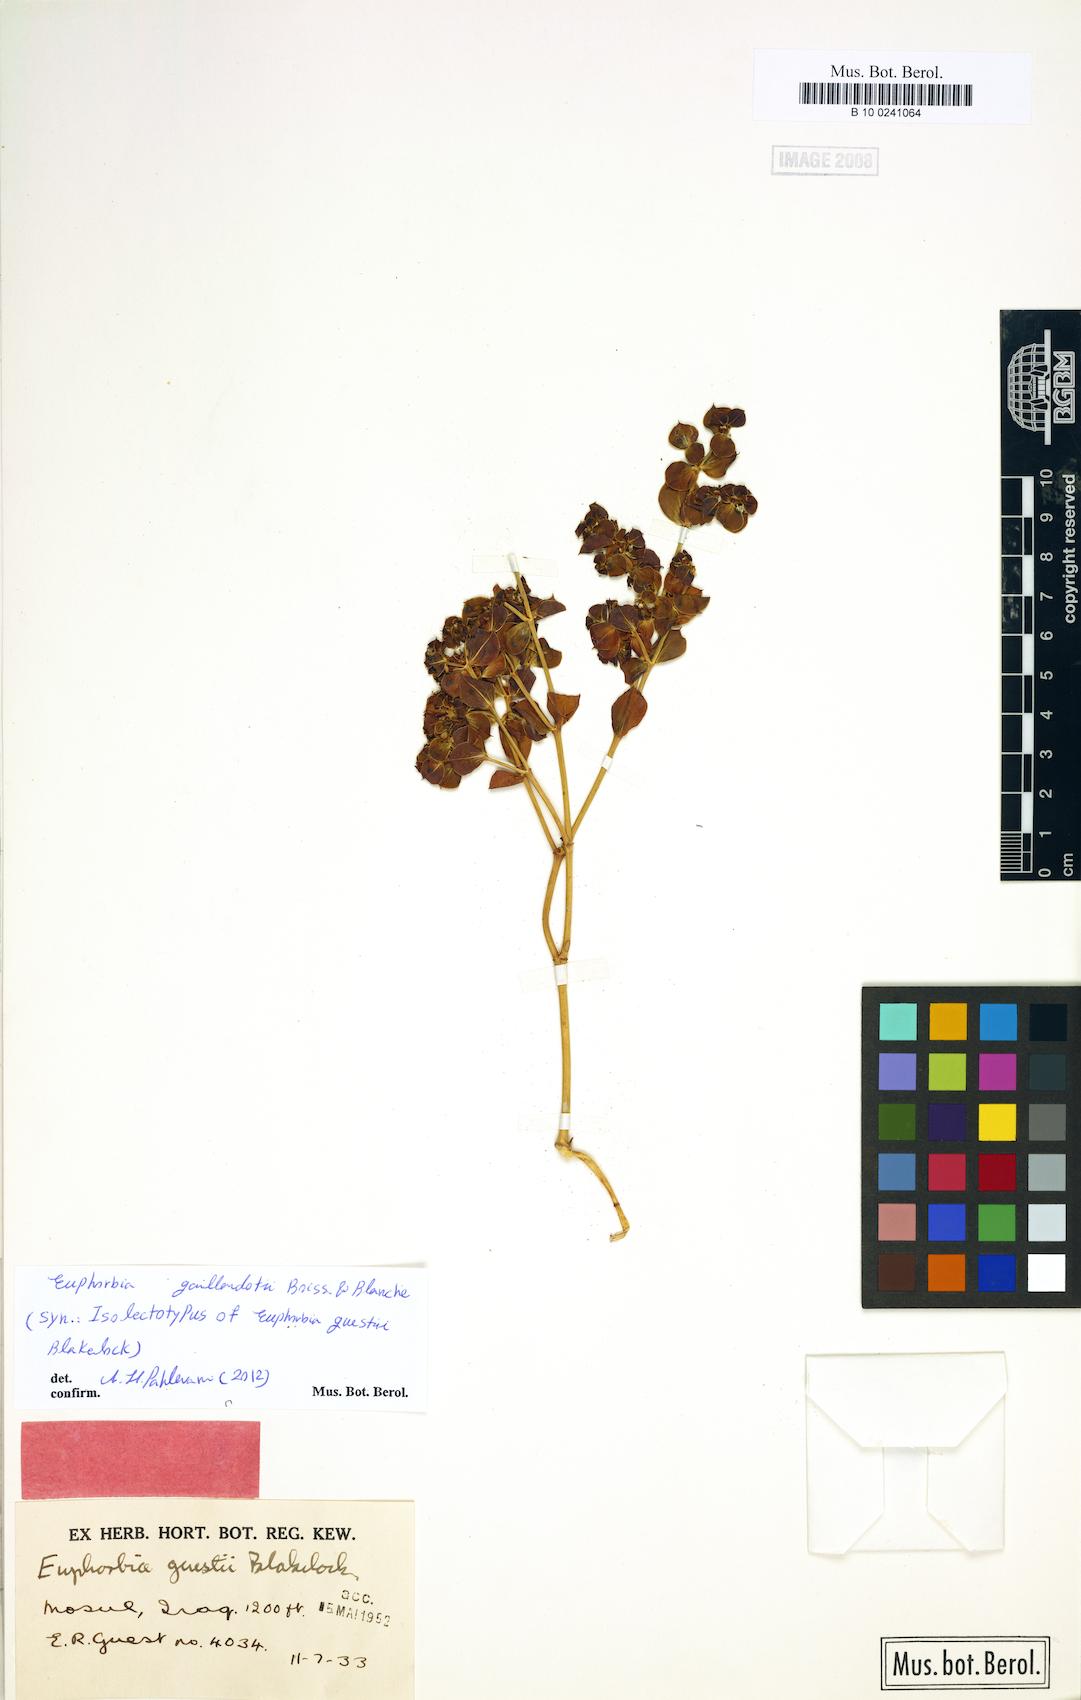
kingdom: Plantae
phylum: Tracheophyta
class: Magnoliopsida
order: Malpighiales
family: Euphorbiaceae
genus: Euphorbia
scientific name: Euphorbia gaillardotii
